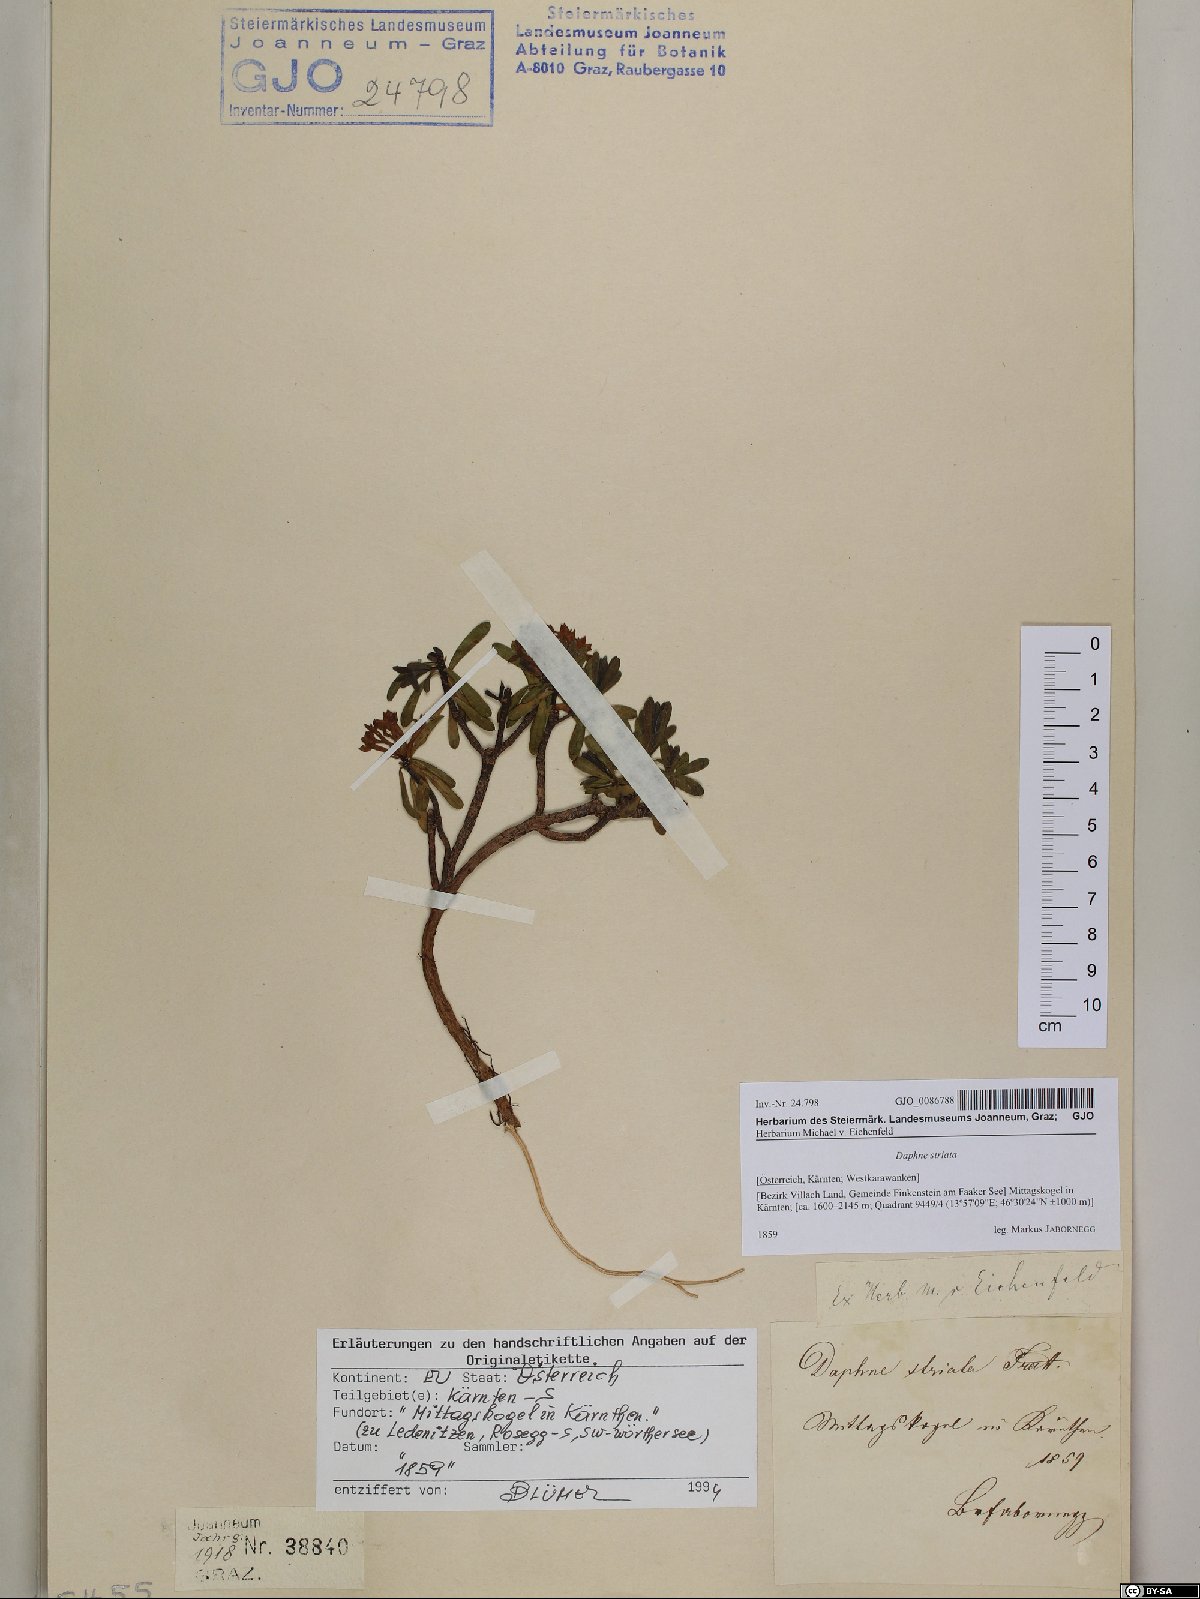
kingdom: Plantae
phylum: Tracheophyta
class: Magnoliopsida
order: Malvales
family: Thymelaeaceae
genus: Daphne
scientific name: Daphne striata
